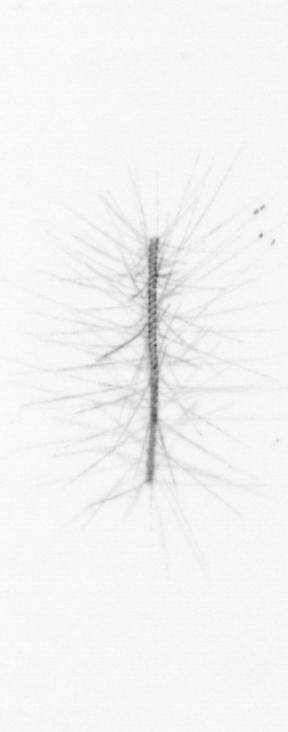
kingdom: Chromista
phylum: Ochrophyta
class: Bacillariophyceae
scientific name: Bacillariophyceae
